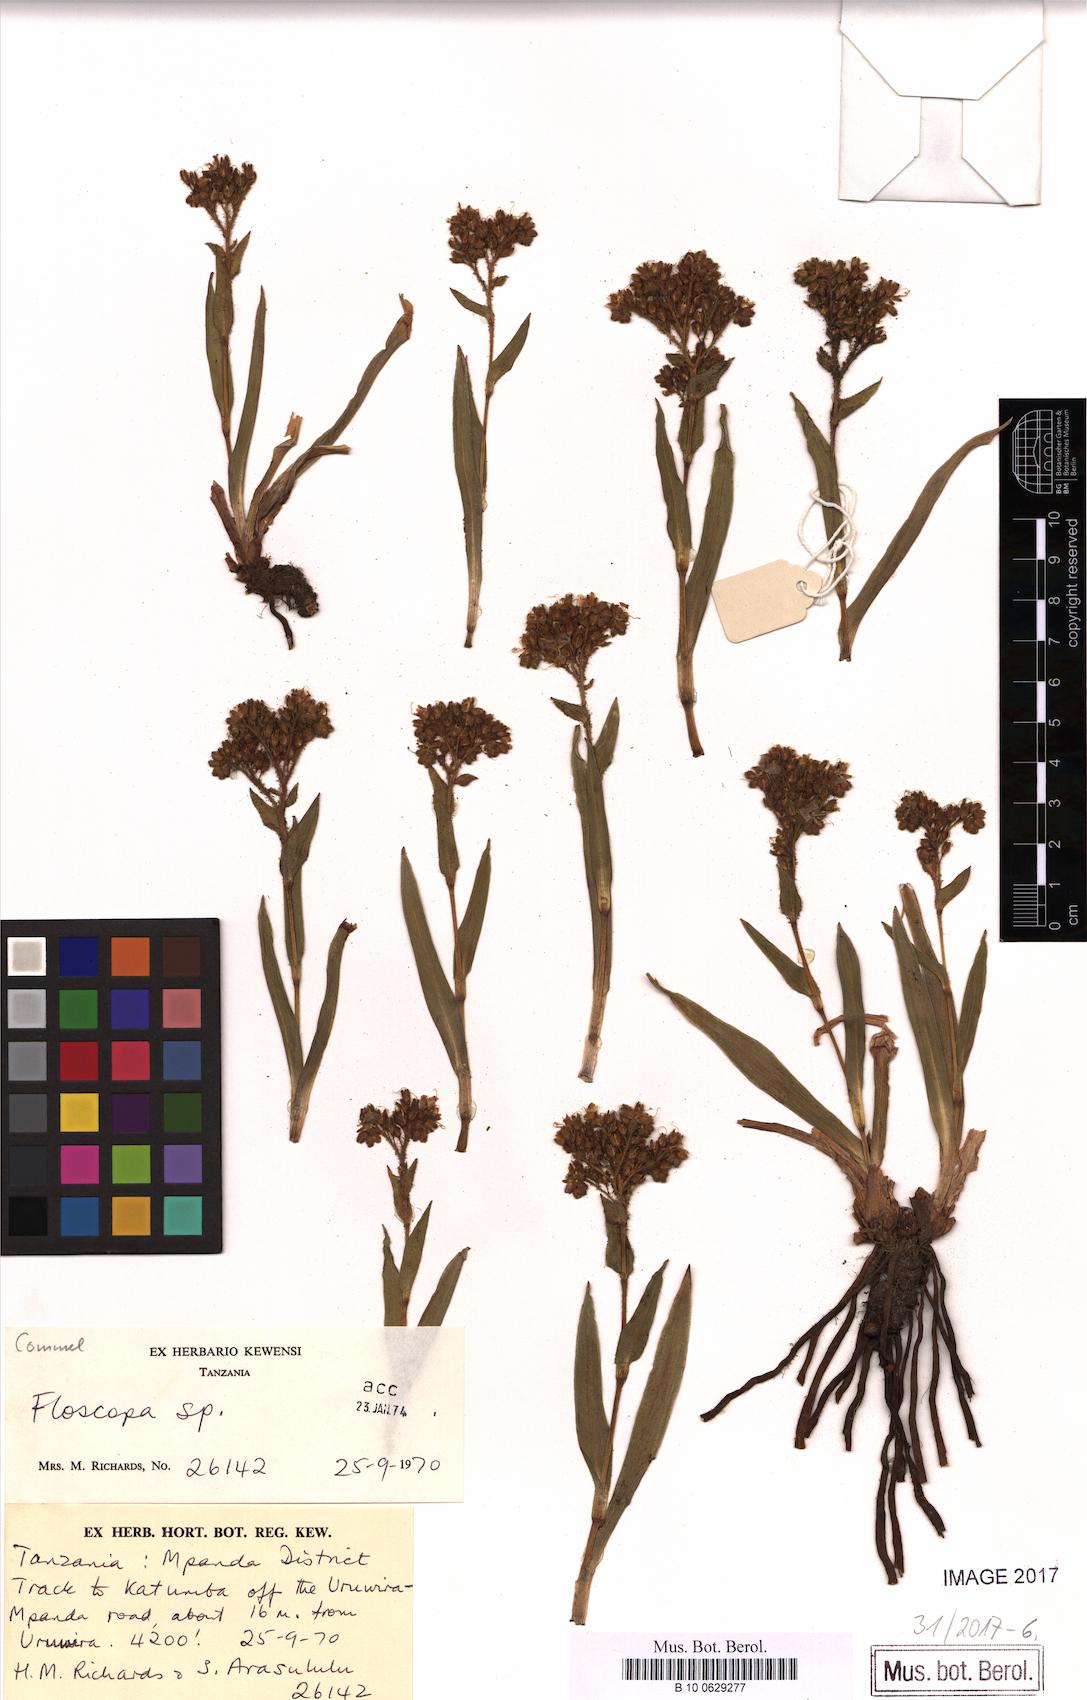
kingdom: Plantae
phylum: Tracheophyta
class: Liliopsida
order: Commelinales
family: Commelinaceae
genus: Floscopa
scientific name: Floscopa
